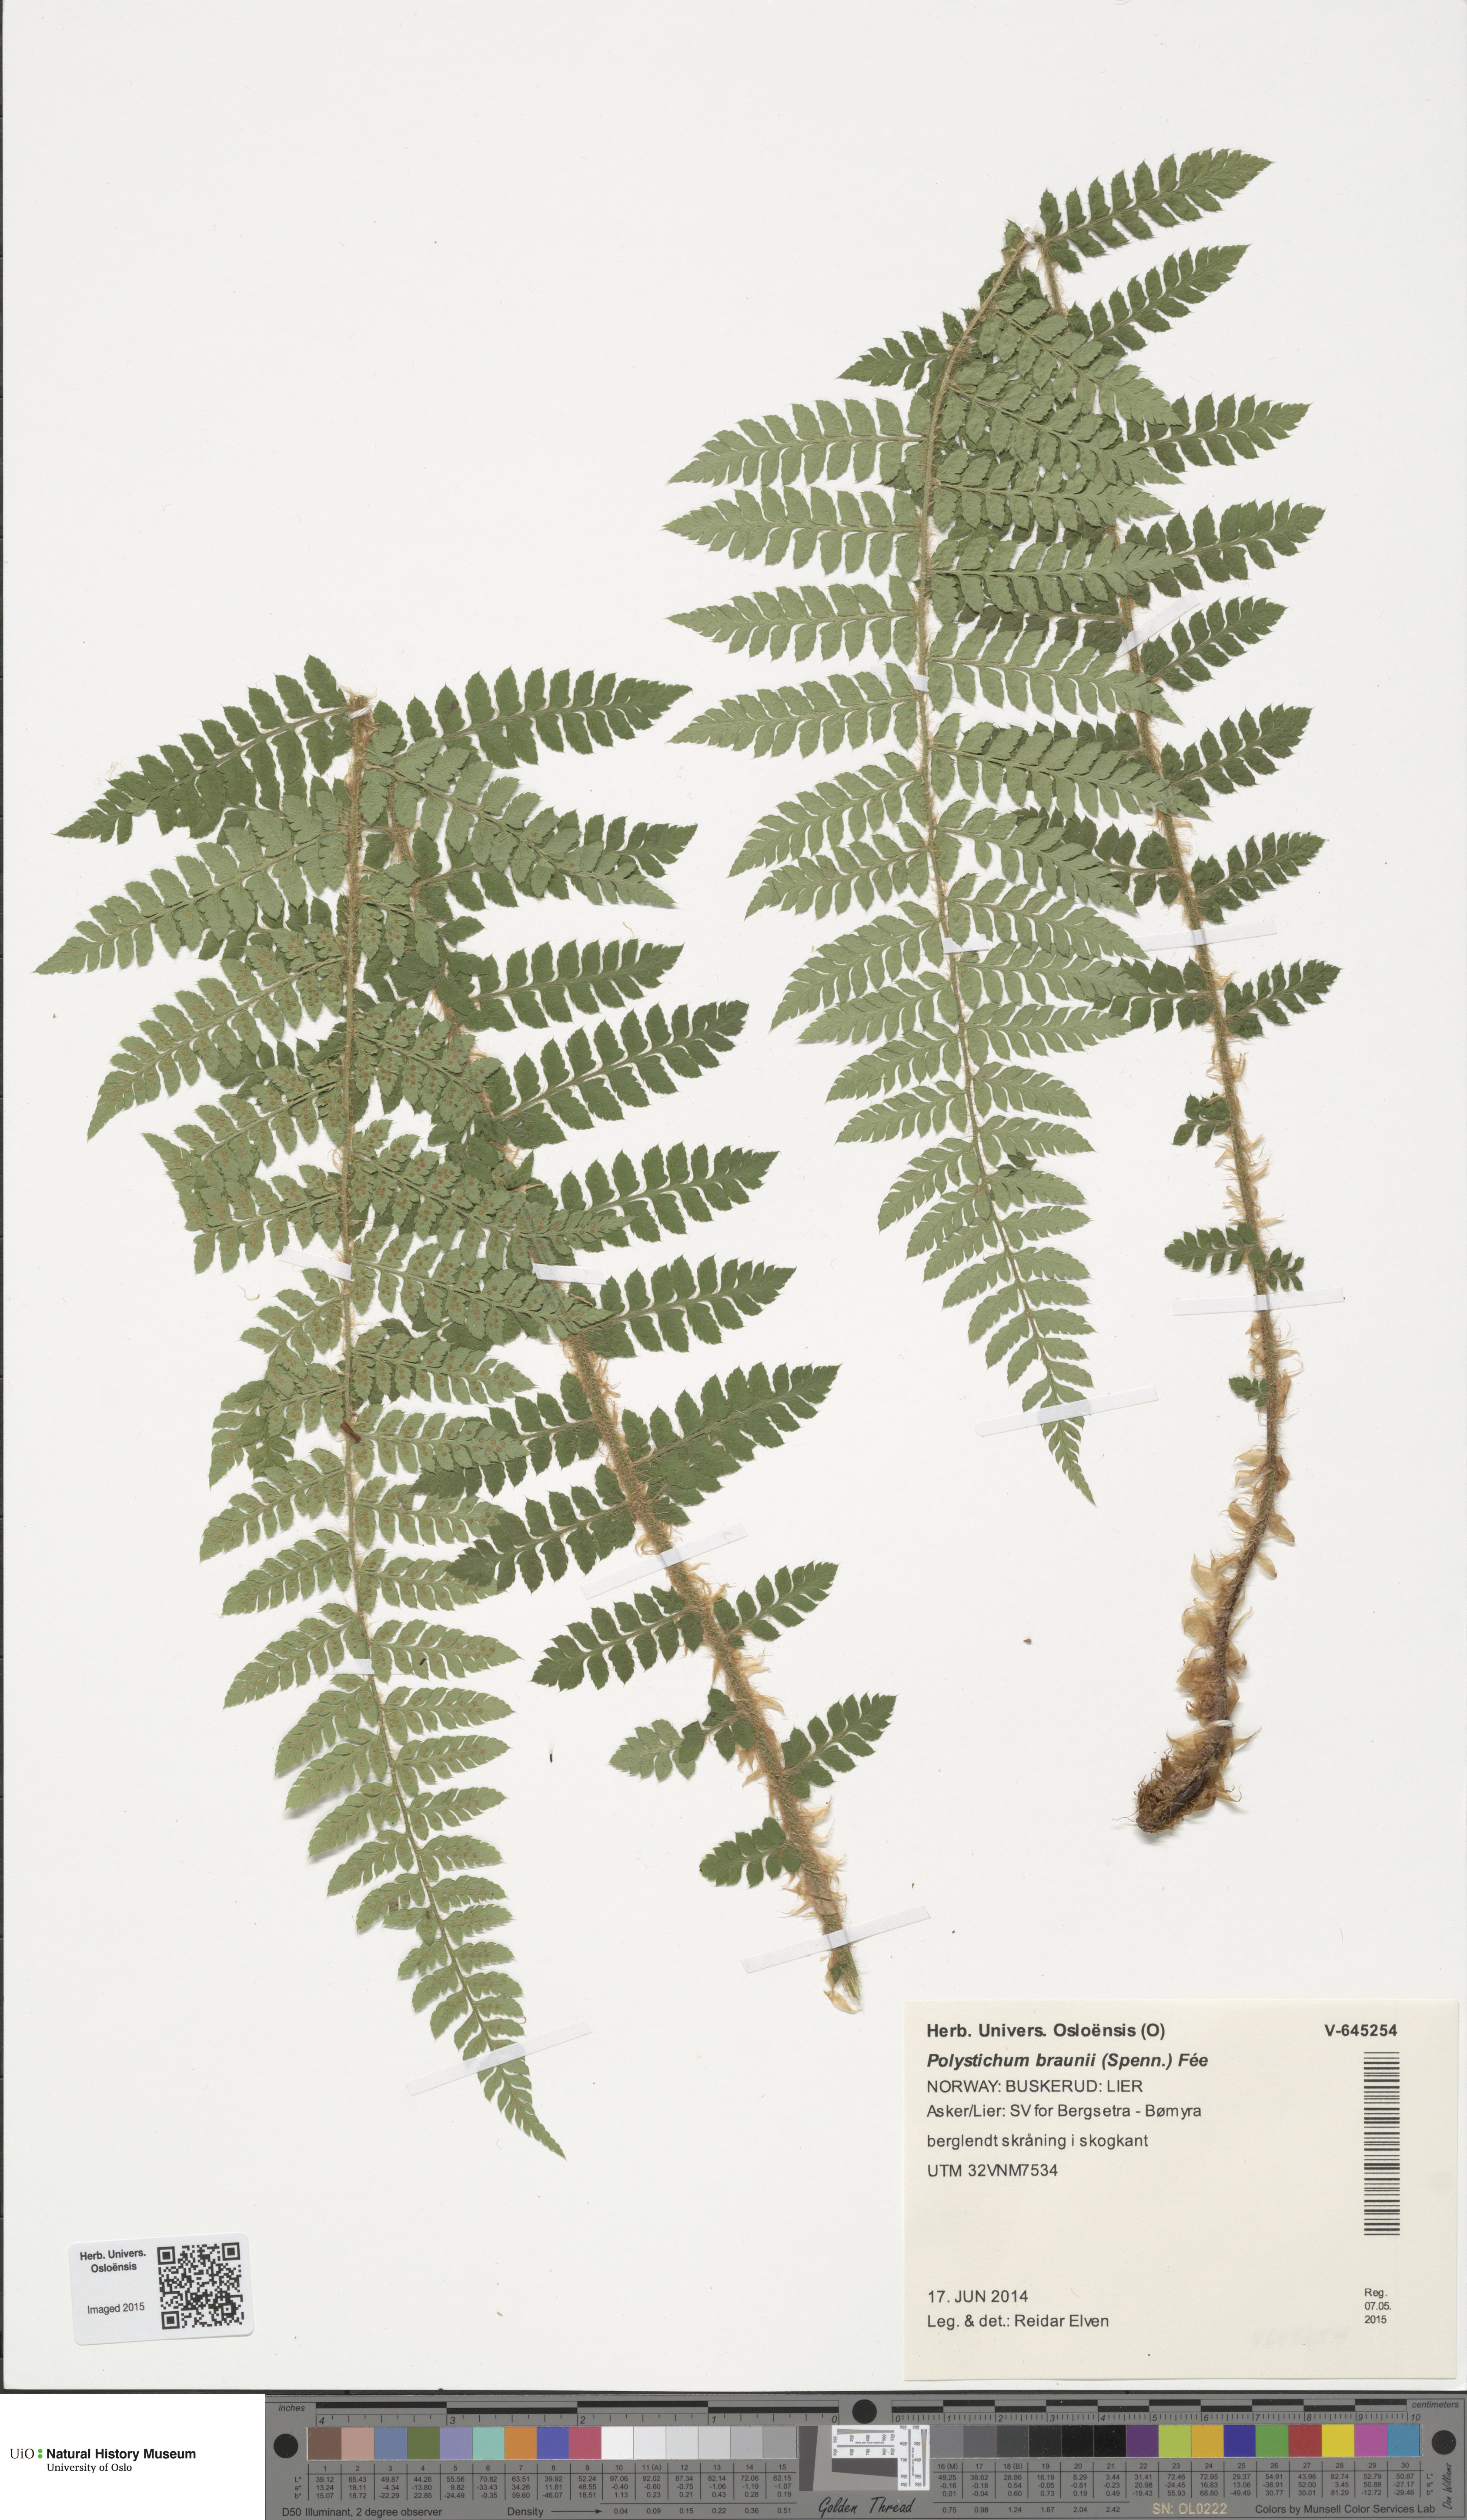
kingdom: Plantae
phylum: Tracheophyta
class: Polypodiopsida
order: Polypodiales
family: Dryopteridaceae
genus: Polystichum
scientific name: Polystichum braunii
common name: Braun's holly fern
